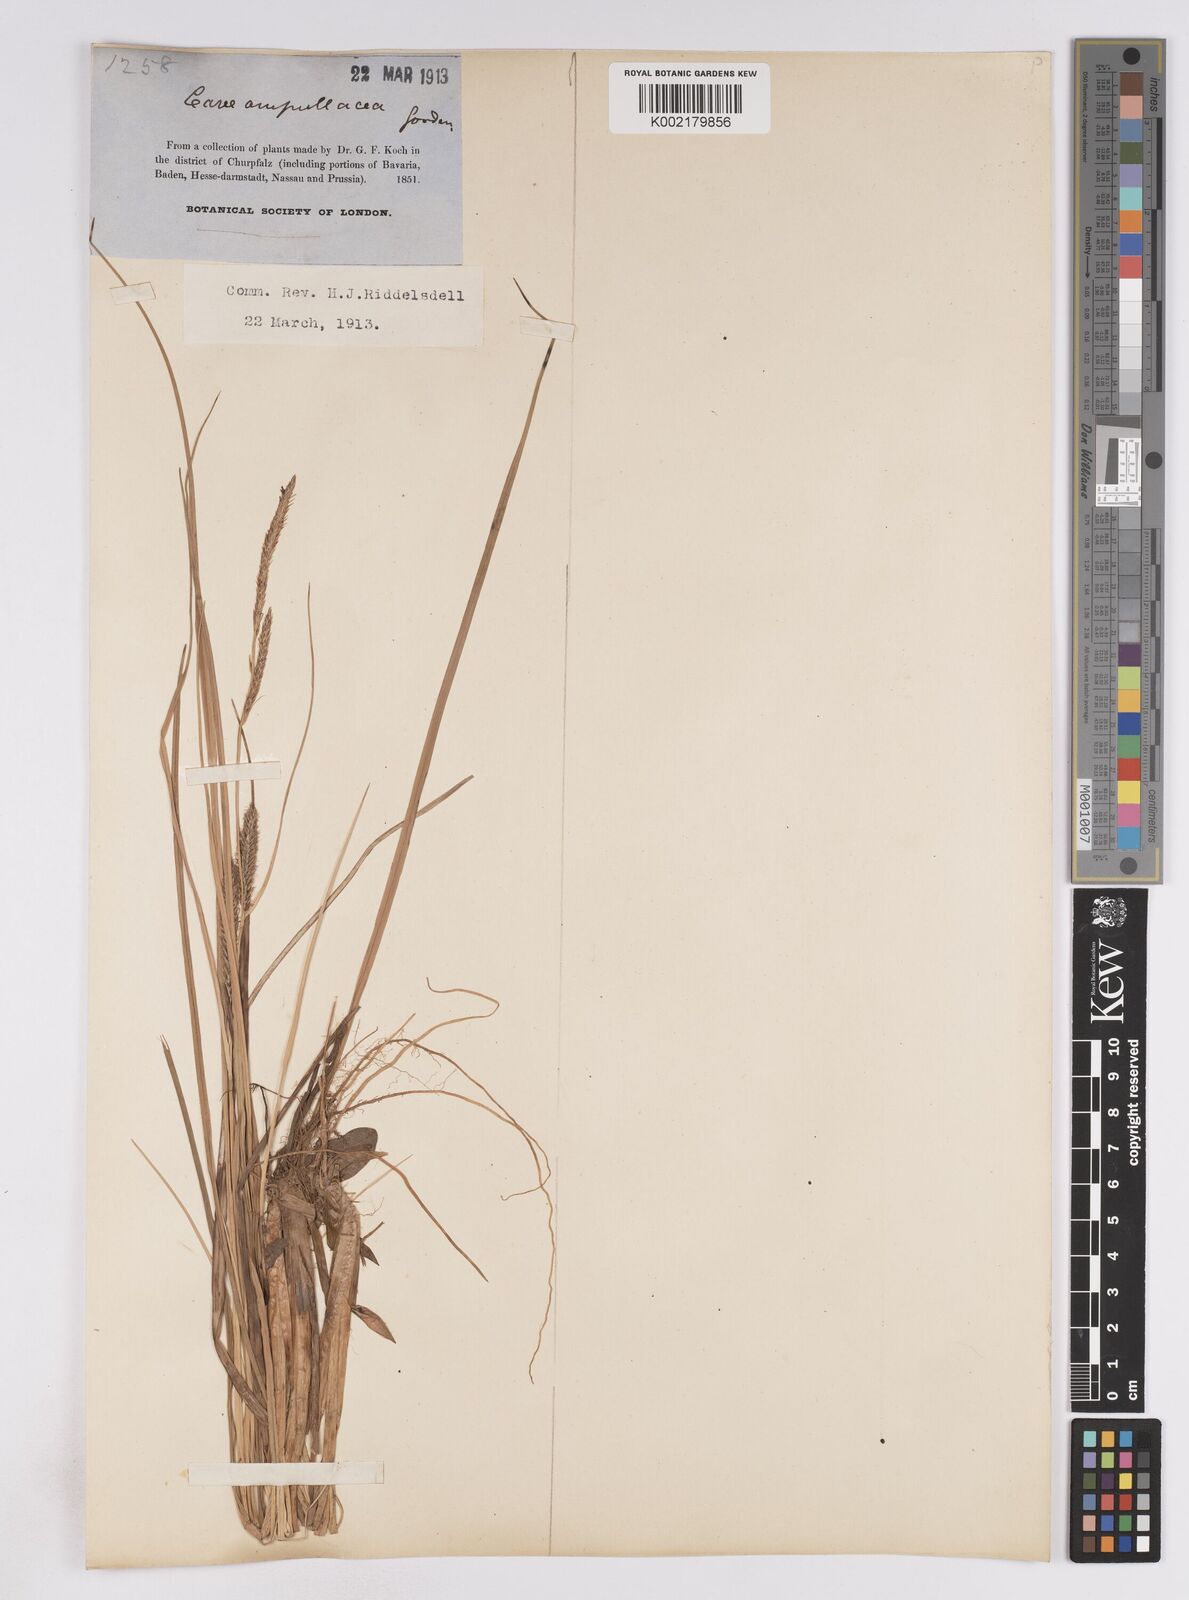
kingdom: Plantae
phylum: Tracheophyta
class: Liliopsida
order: Poales
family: Cyperaceae
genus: Carex
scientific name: Carex rostrata
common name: Bottle sedge
